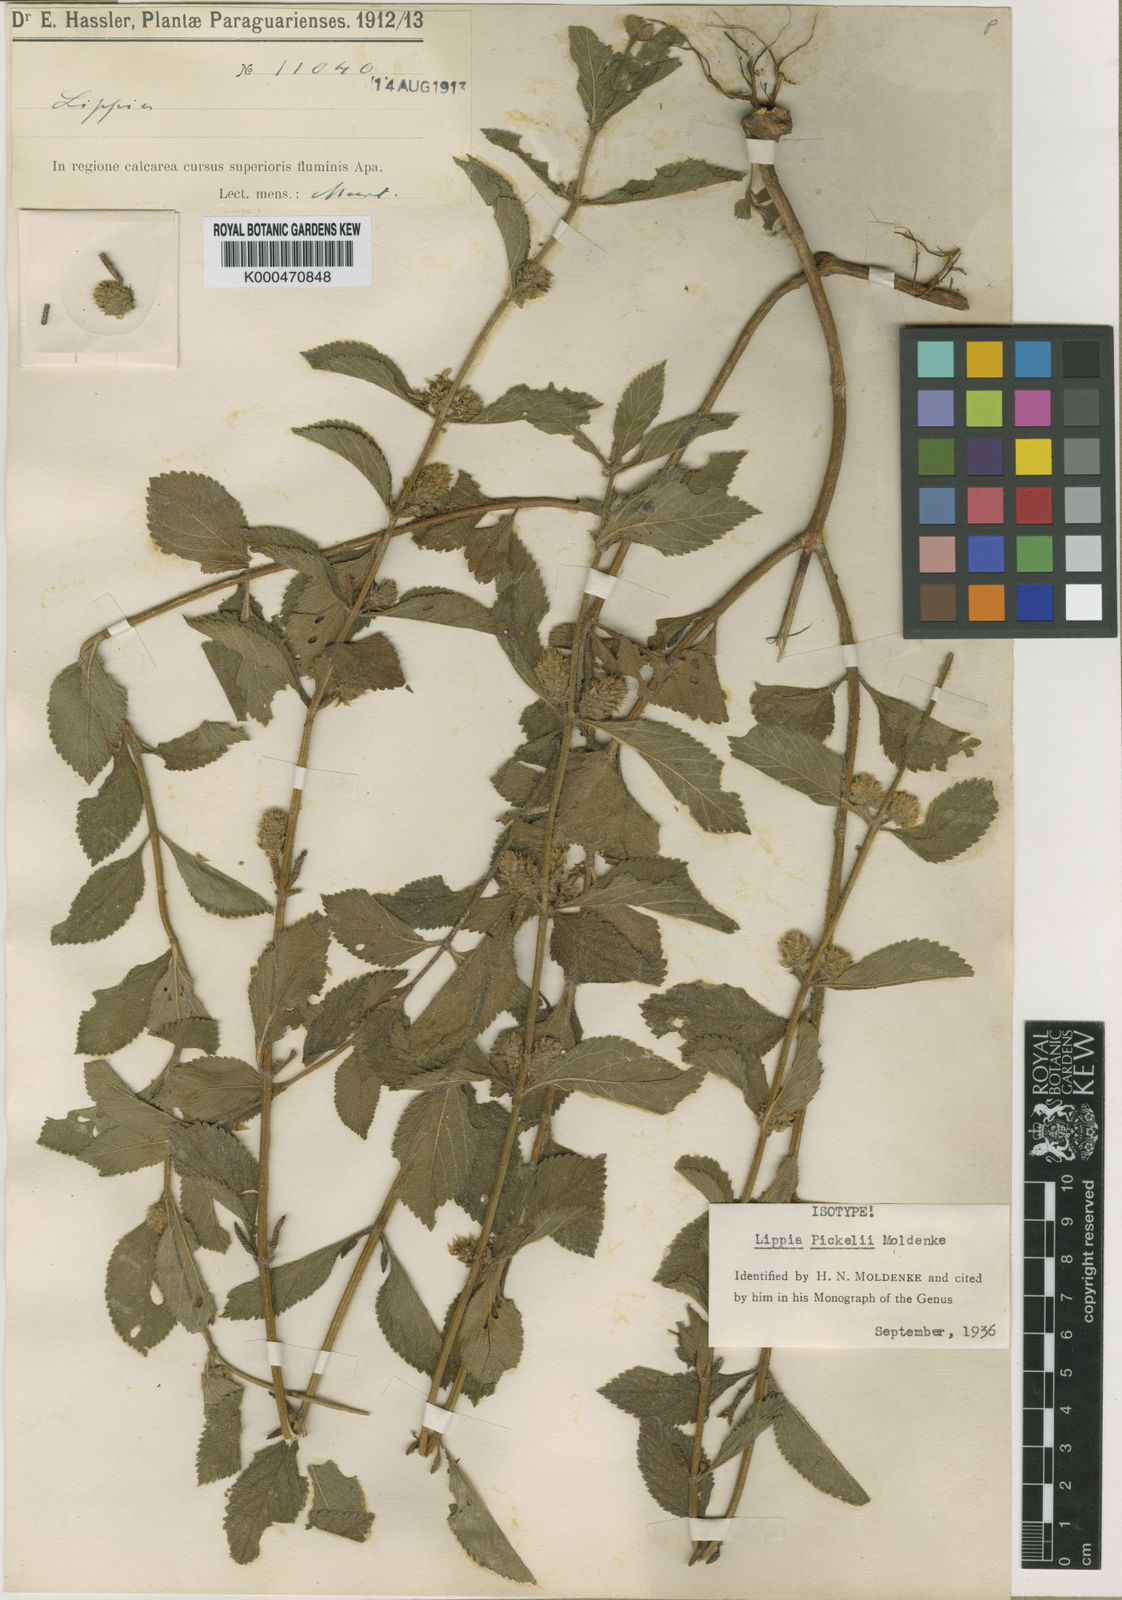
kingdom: Plantae
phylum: Tracheophyta
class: Magnoliopsida
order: Lamiales
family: Verbenaceae
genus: Lippia
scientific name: Lippia recolletae
